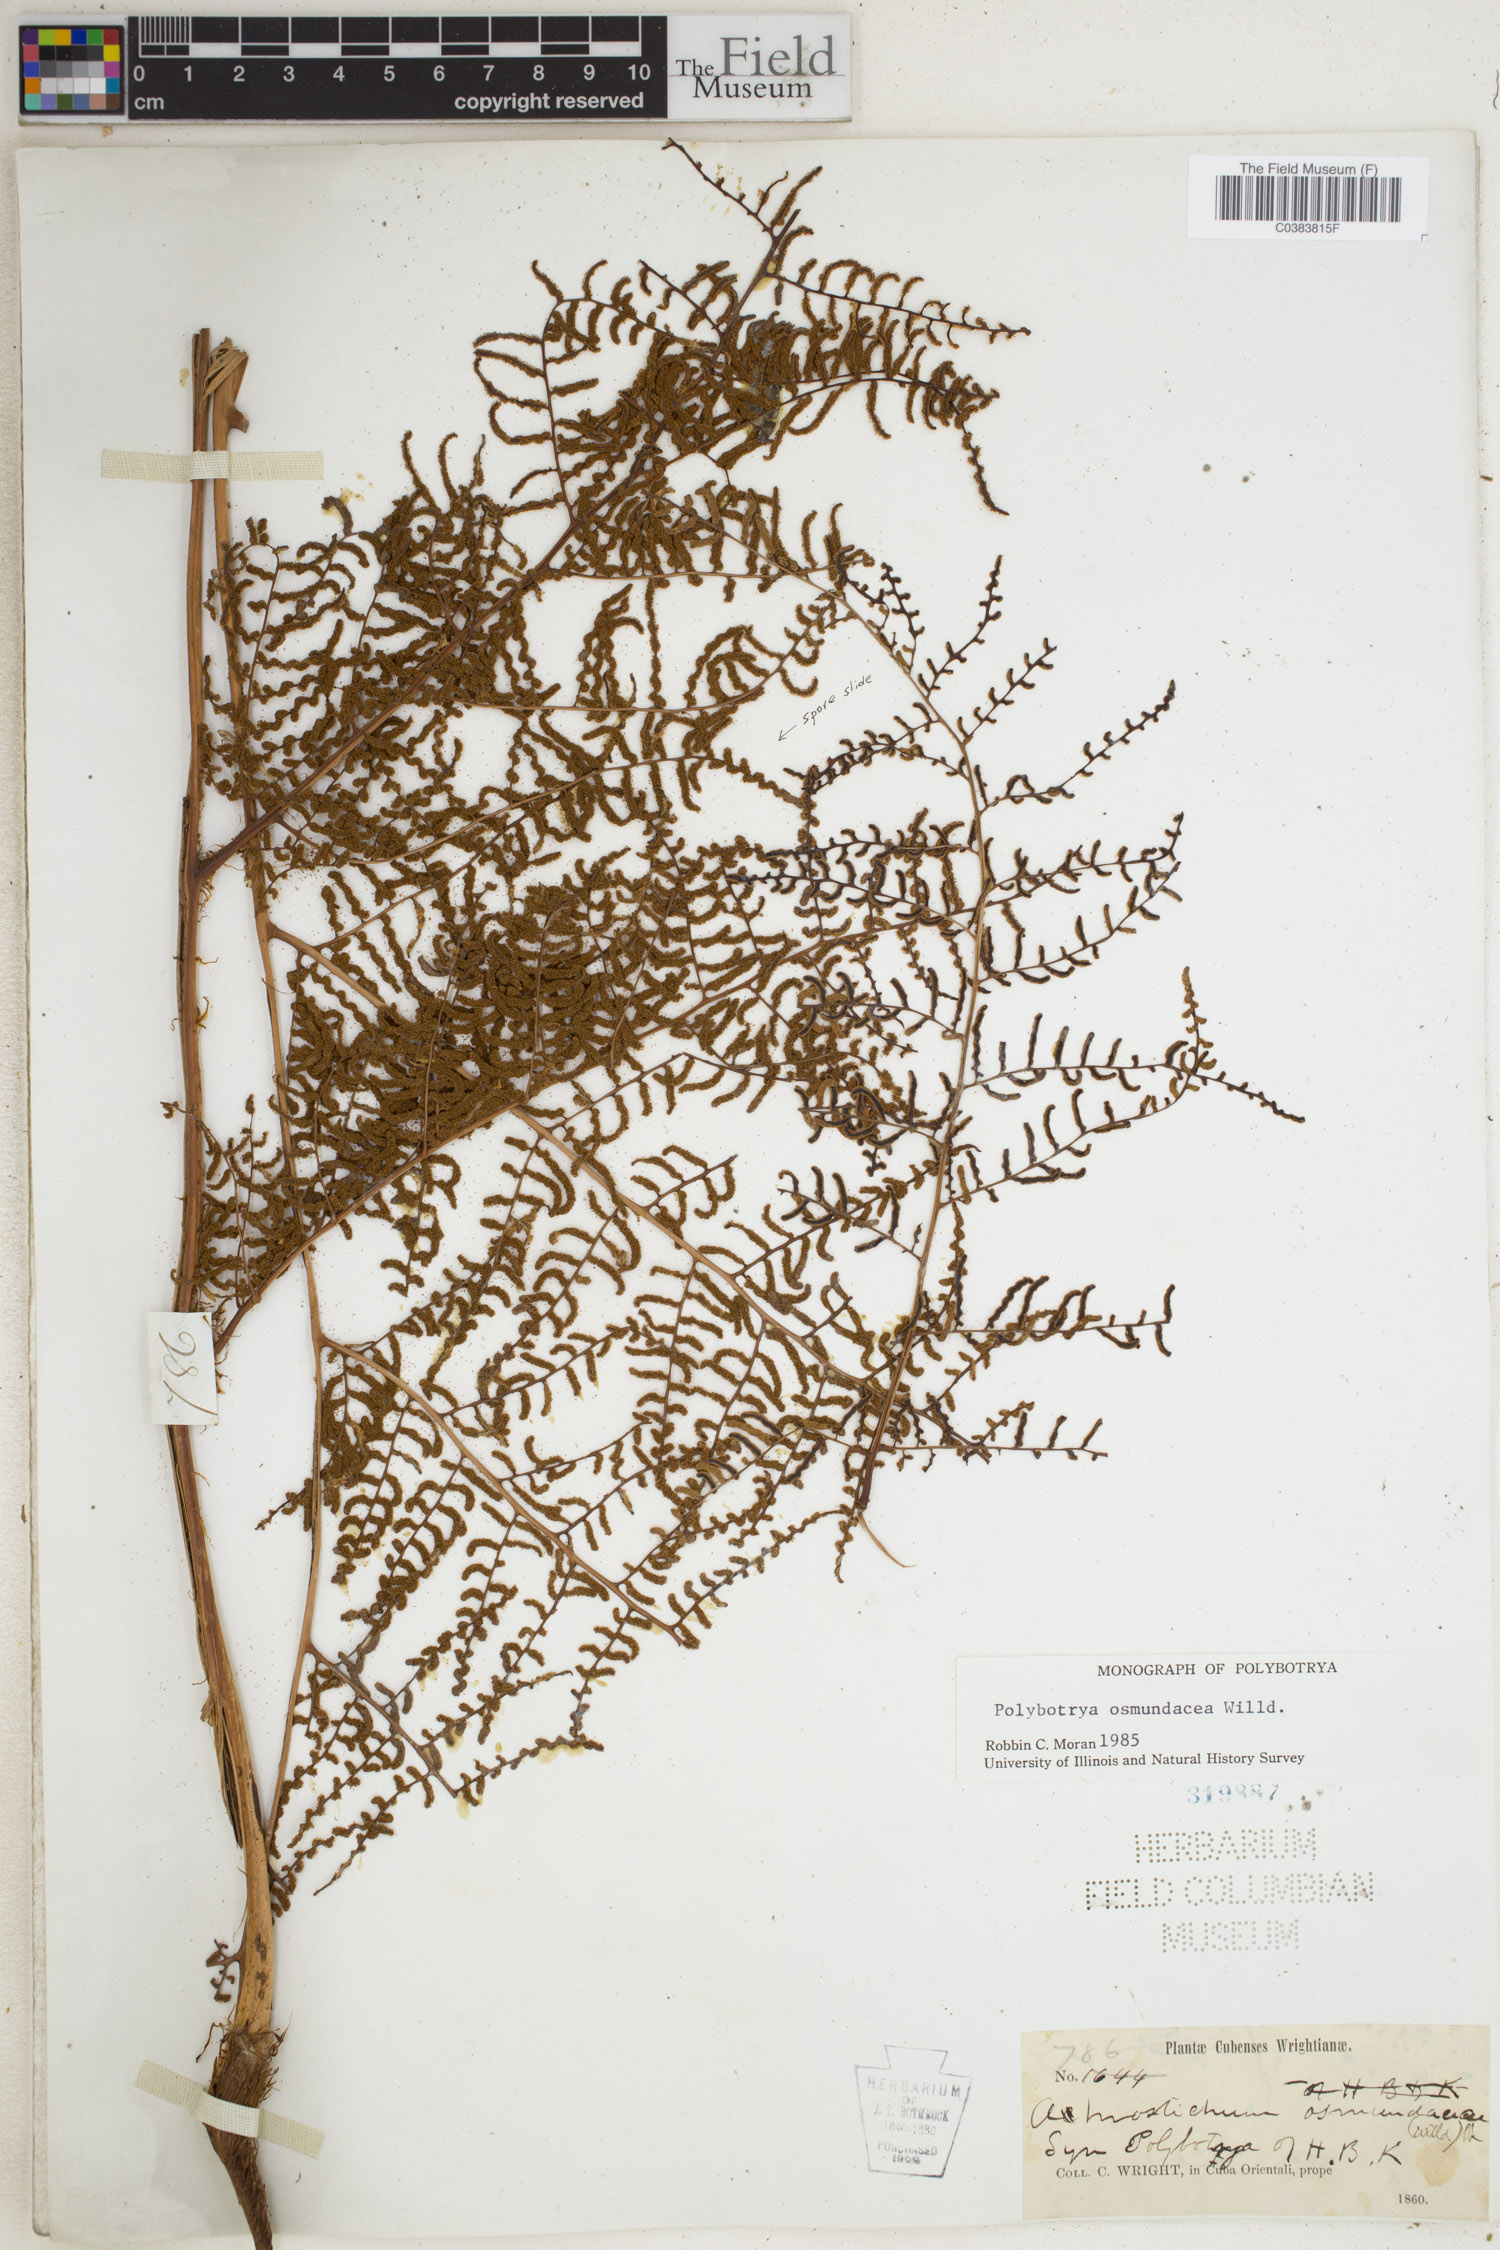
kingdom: Plantae
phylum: Tracheophyta
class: Polypodiopsida
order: Polypodiales
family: Dryopteridaceae
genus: Polybotrya
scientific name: Polybotrya osmundacea
